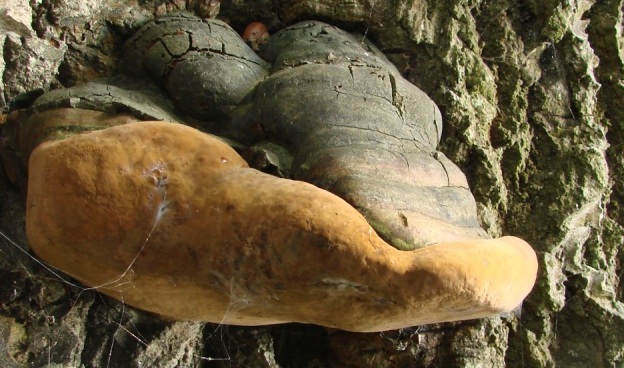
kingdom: Fungi
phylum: Basidiomycota
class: Agaricomycetes
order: Hymenochaetales
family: Hymenochaetaceae
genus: Phellinus
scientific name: Phellinus populicola
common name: poppel-ildporesvamp
